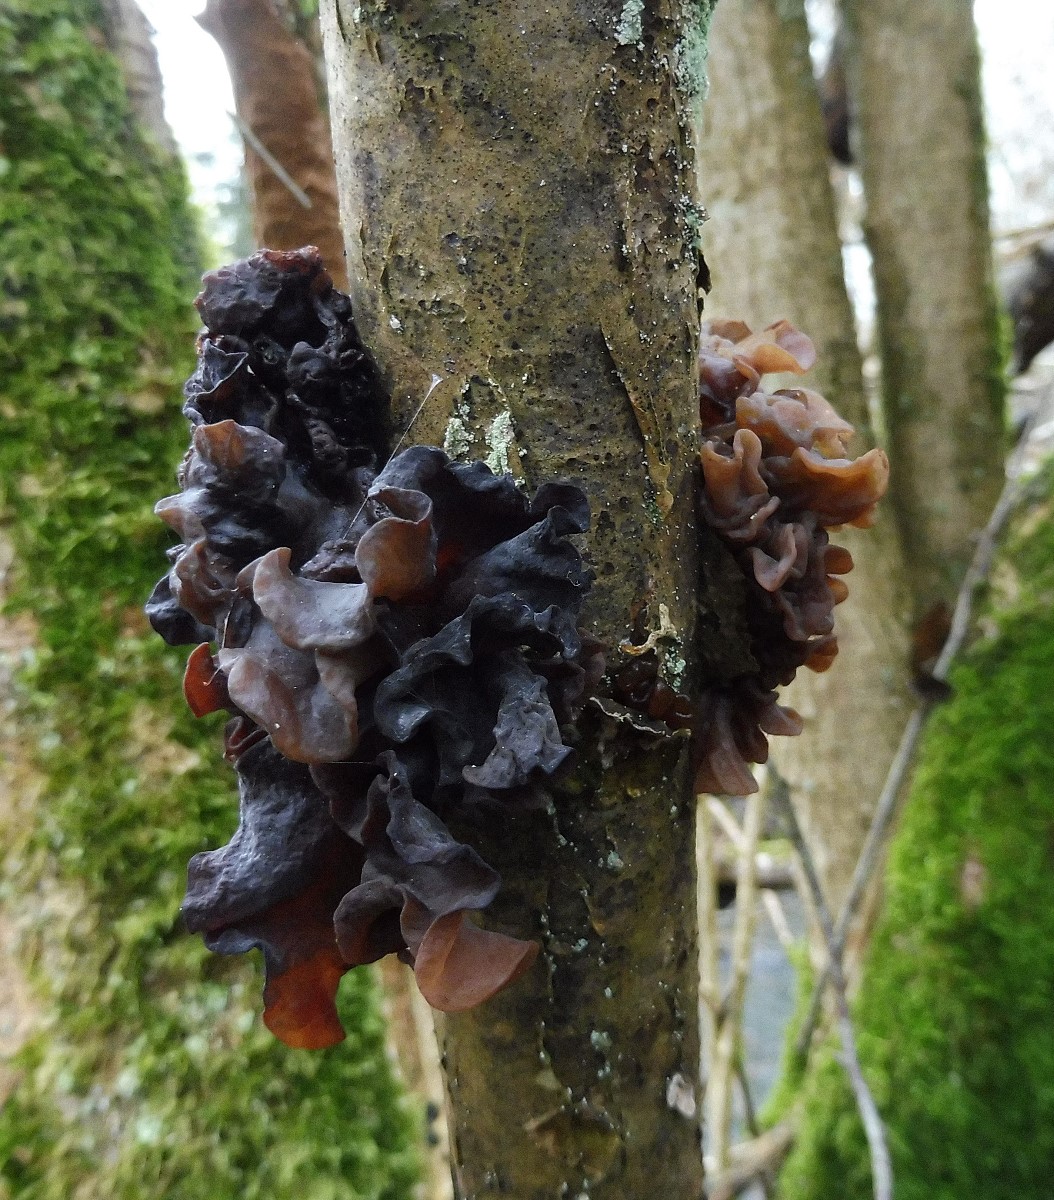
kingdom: Fungi
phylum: Basidiomycota
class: Tremellomycetes
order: Tremellales
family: Tremellaceae
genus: Phaeotremella
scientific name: Phaeotremella frondosa
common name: kæmpe-bævresvamp
